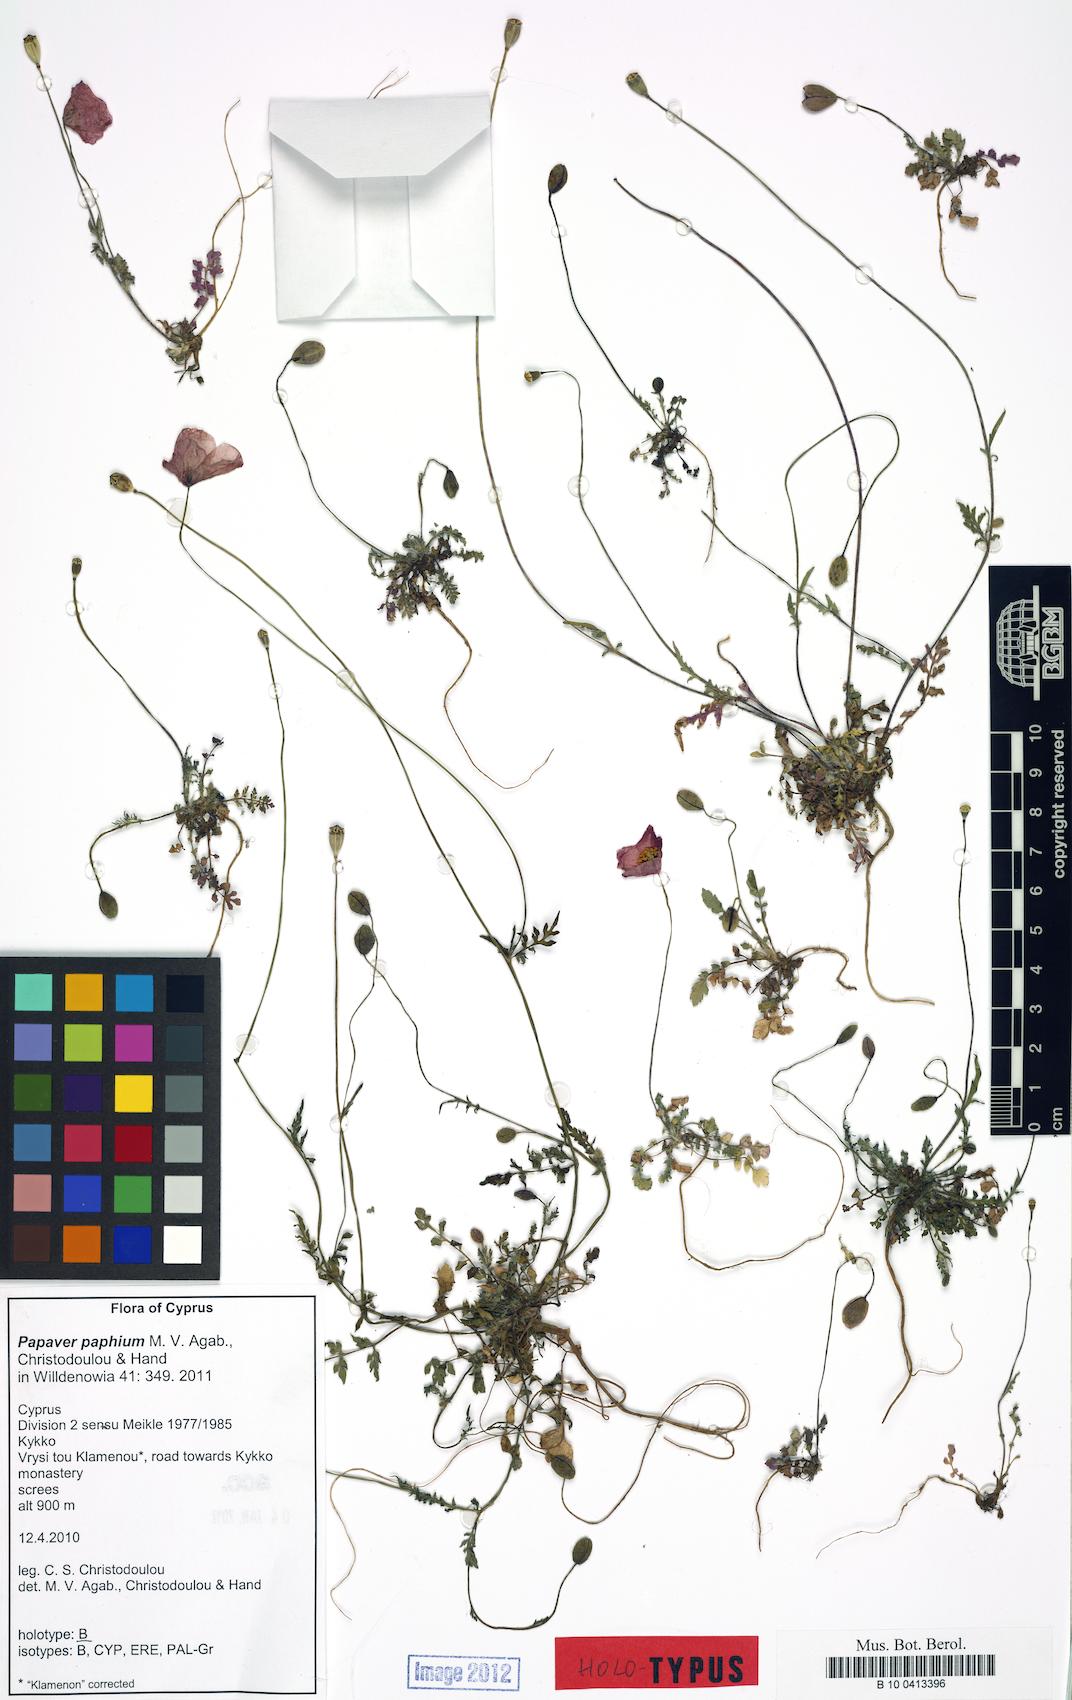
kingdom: Plantae
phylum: Tracheophyta
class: Magnoliopsida
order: Ranunculales
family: Papaveraceae
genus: Papaver
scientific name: Papaver paphium
